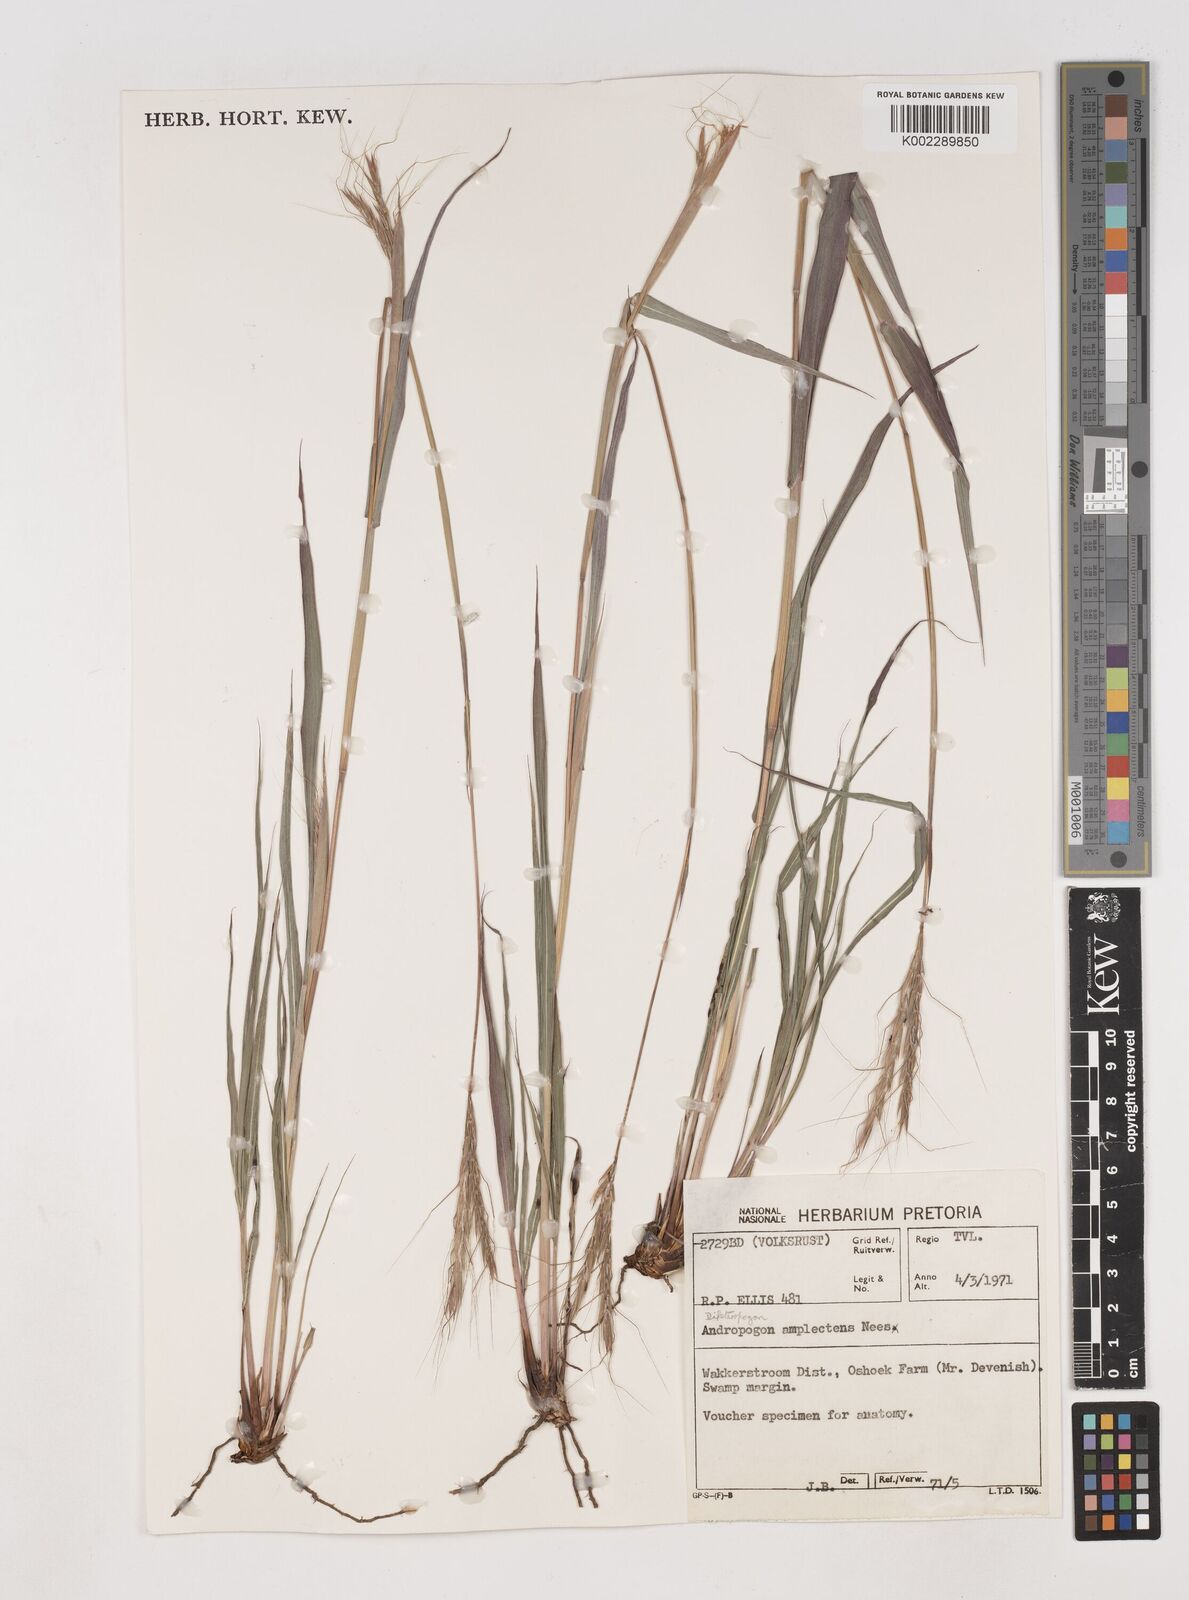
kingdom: Plantae
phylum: Tracheophyta
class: Liliopsida
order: Poales
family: Poaceae
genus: Diheteropogon
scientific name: Diheteropogon amplectens
